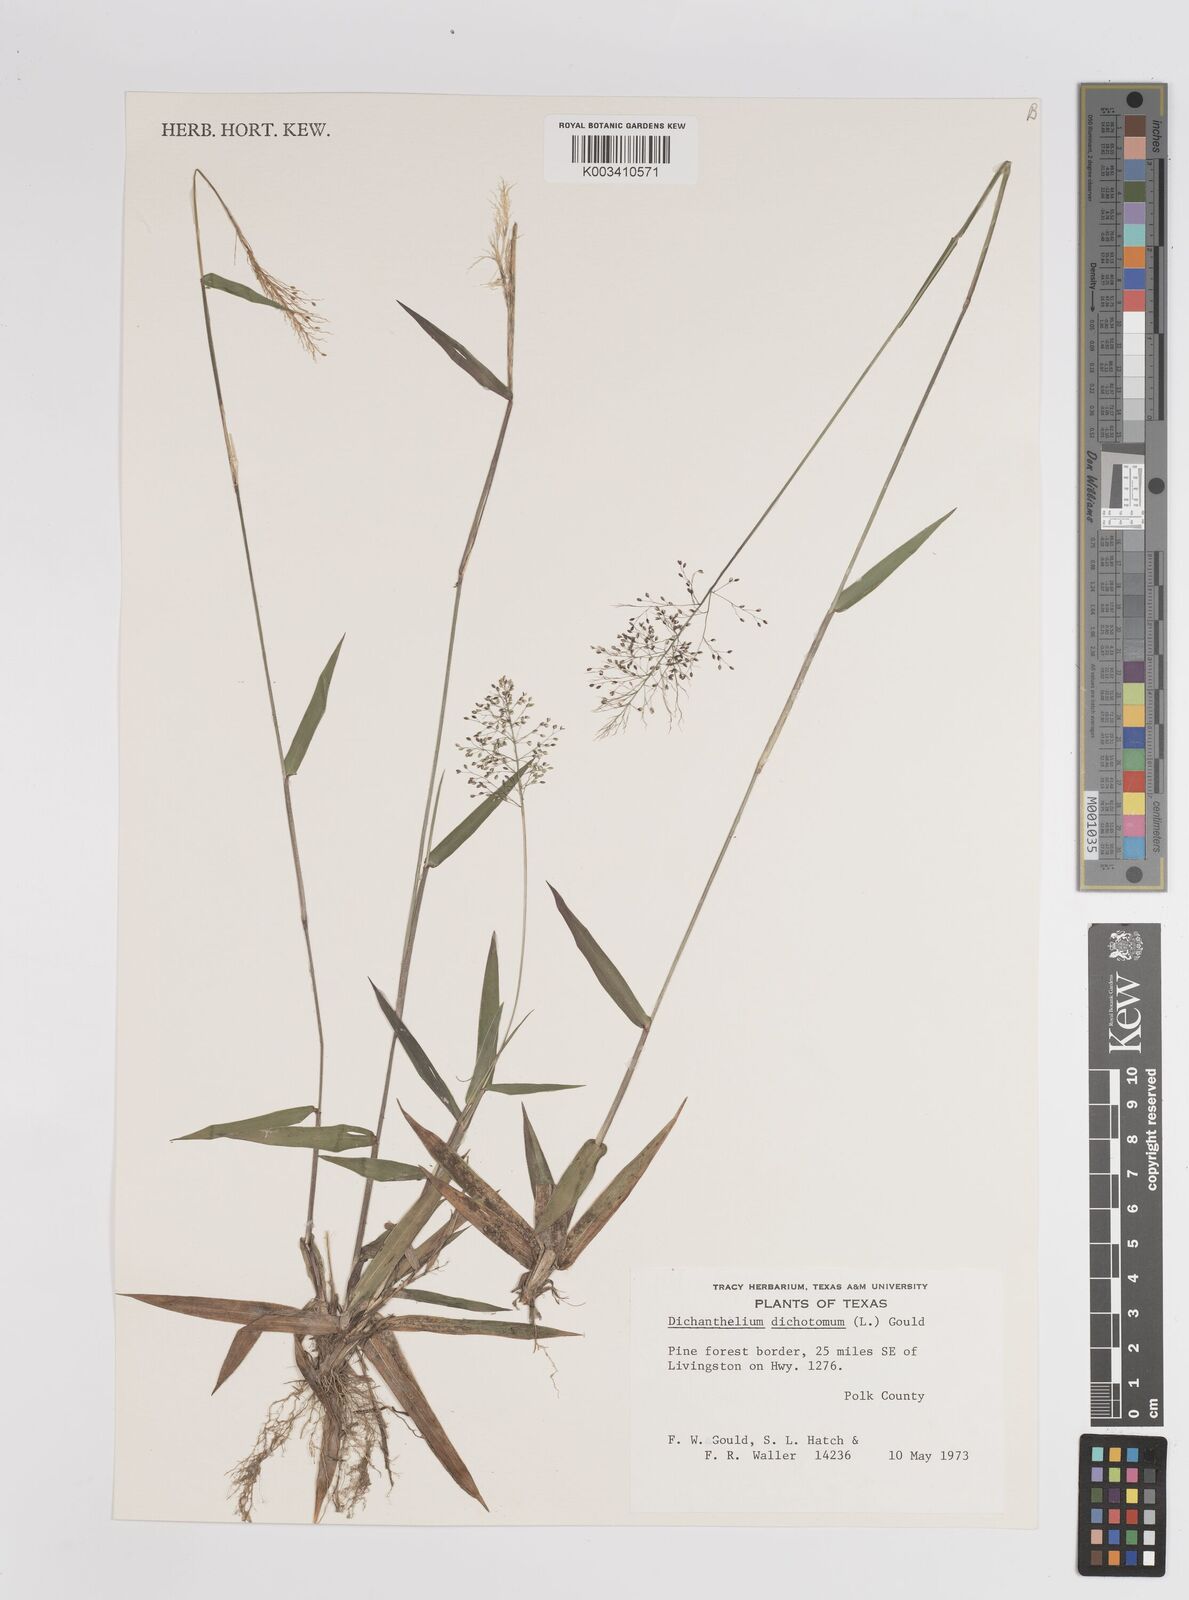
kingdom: Plantae
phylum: Tracheophyta
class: Liliopsida
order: Poales
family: Poaceae
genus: Dichanthelium
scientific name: Dichanthelium dichotomum
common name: Cypress panicgrass
